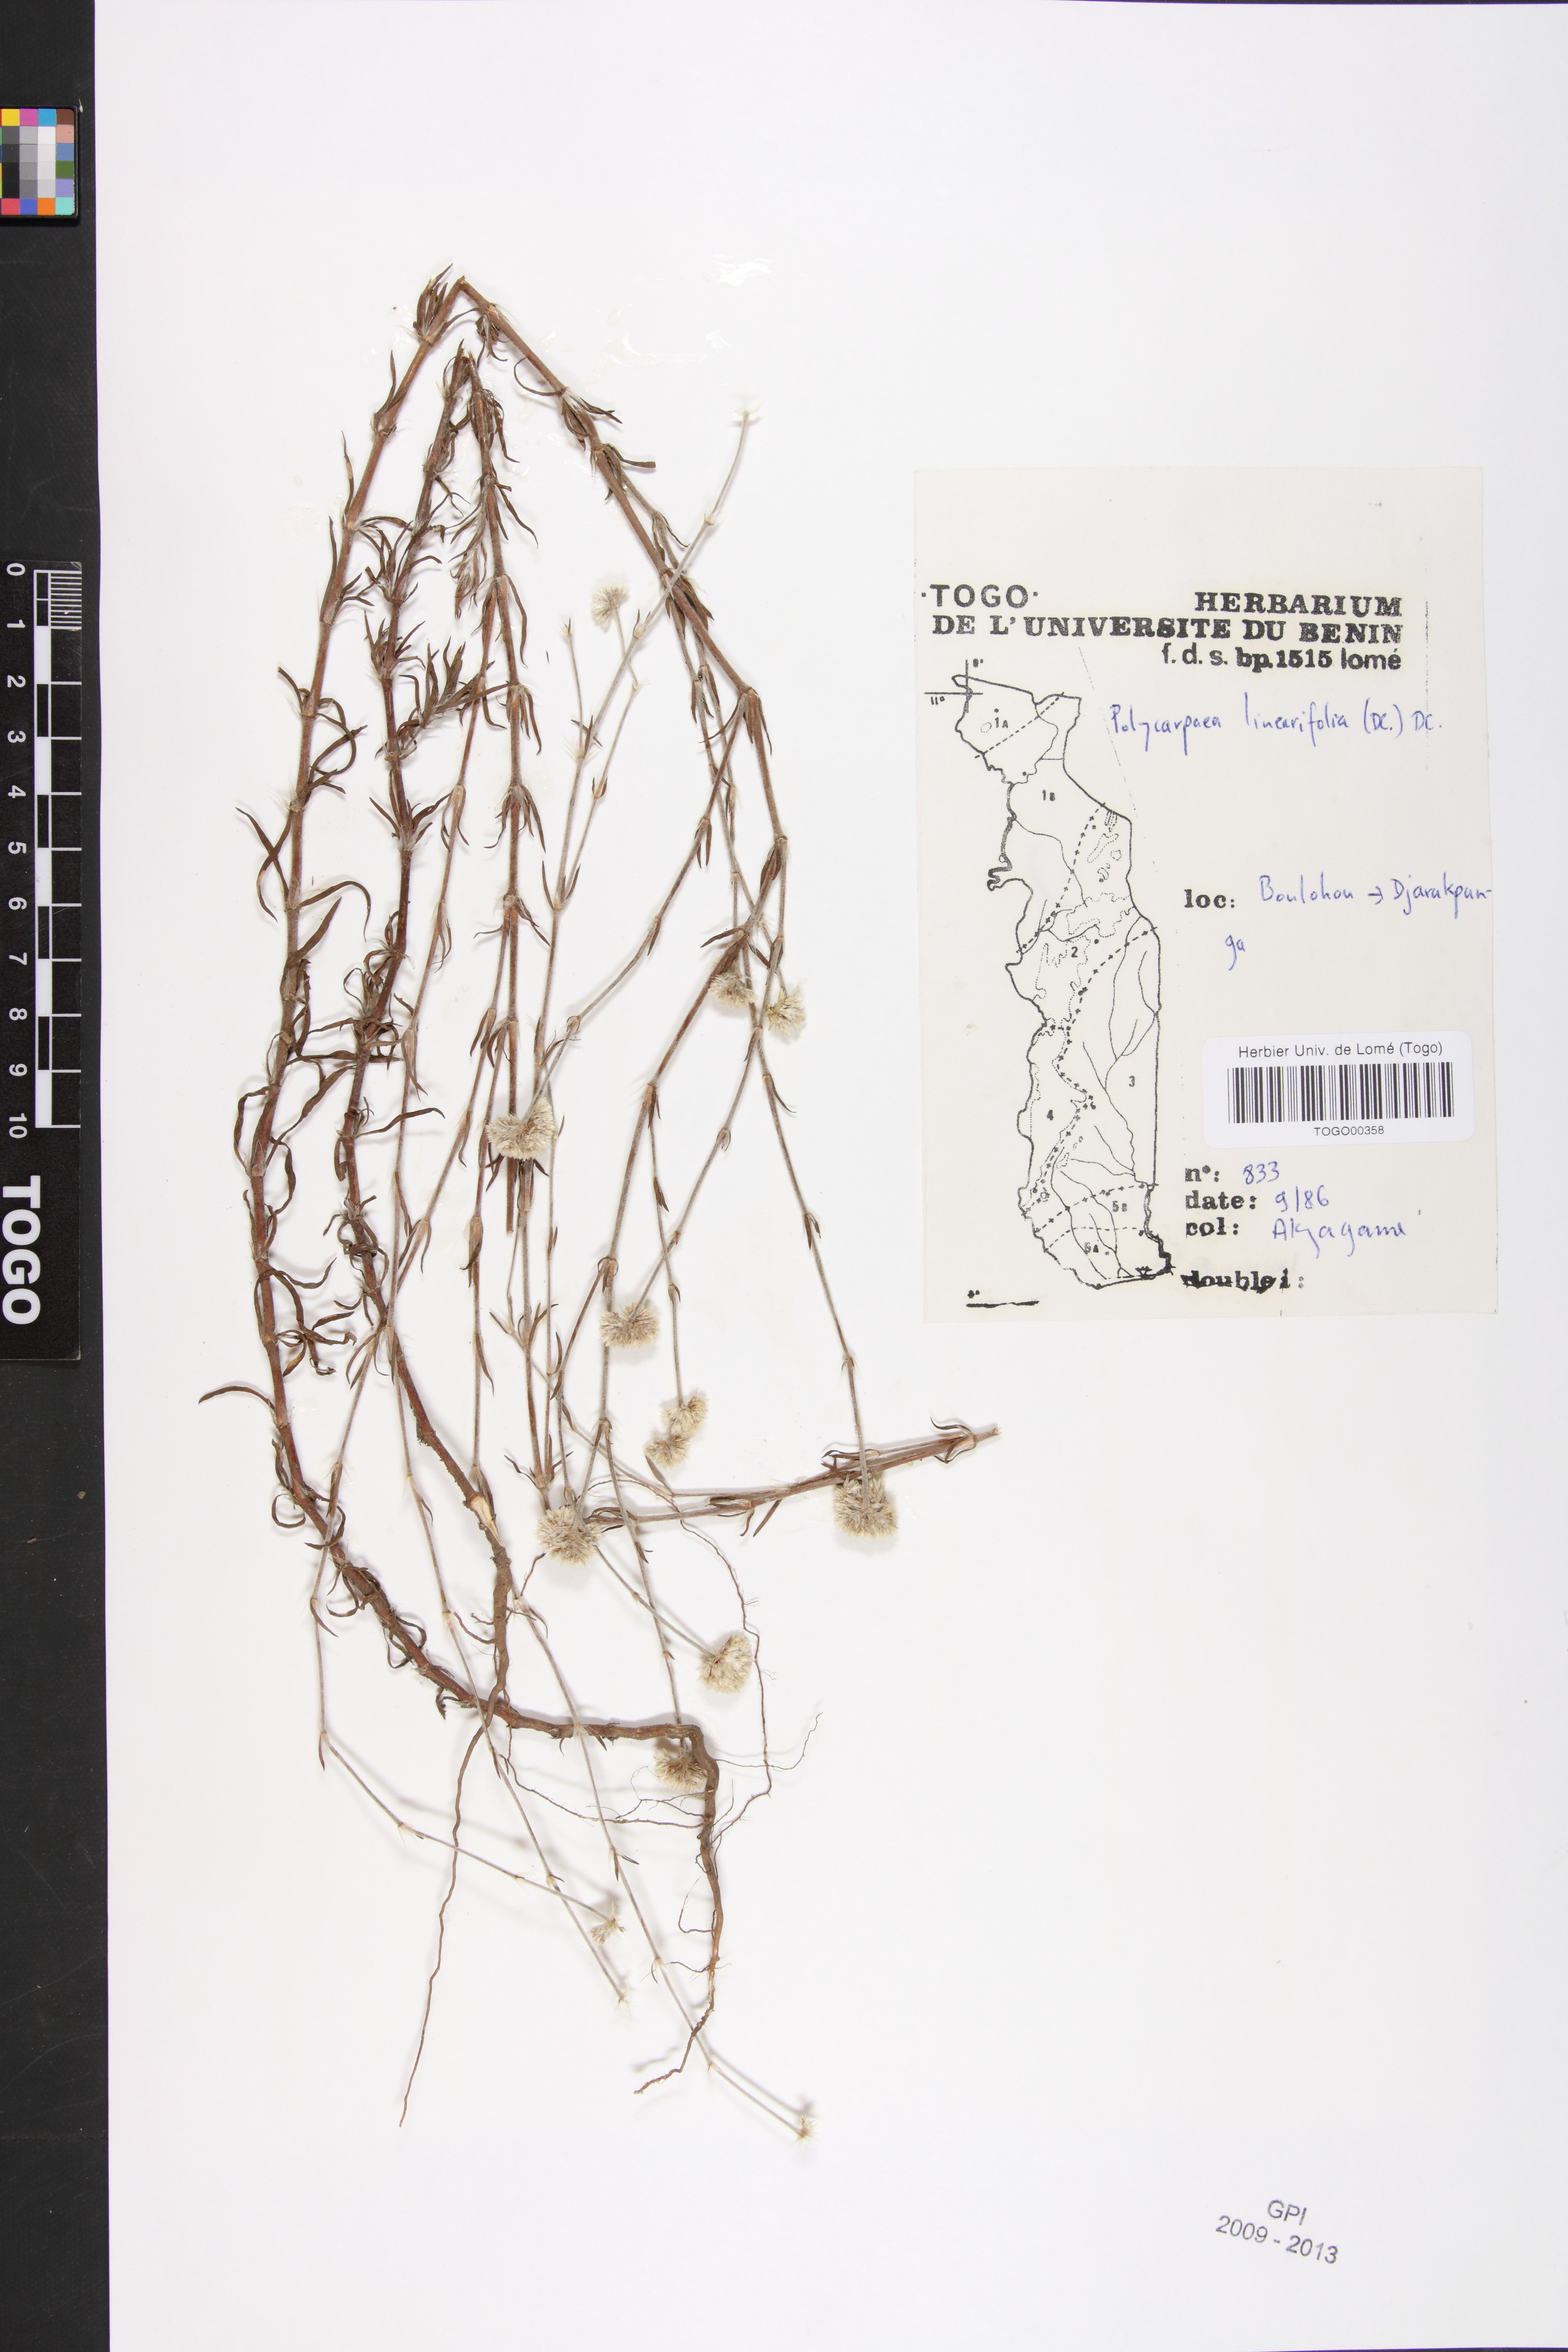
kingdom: Plantae
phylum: Tracheophyta
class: Magnoliopsida
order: Caryophyllales
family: Caryophyllaceae
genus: Polycarpaea
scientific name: Polycarpaea linearifolia
